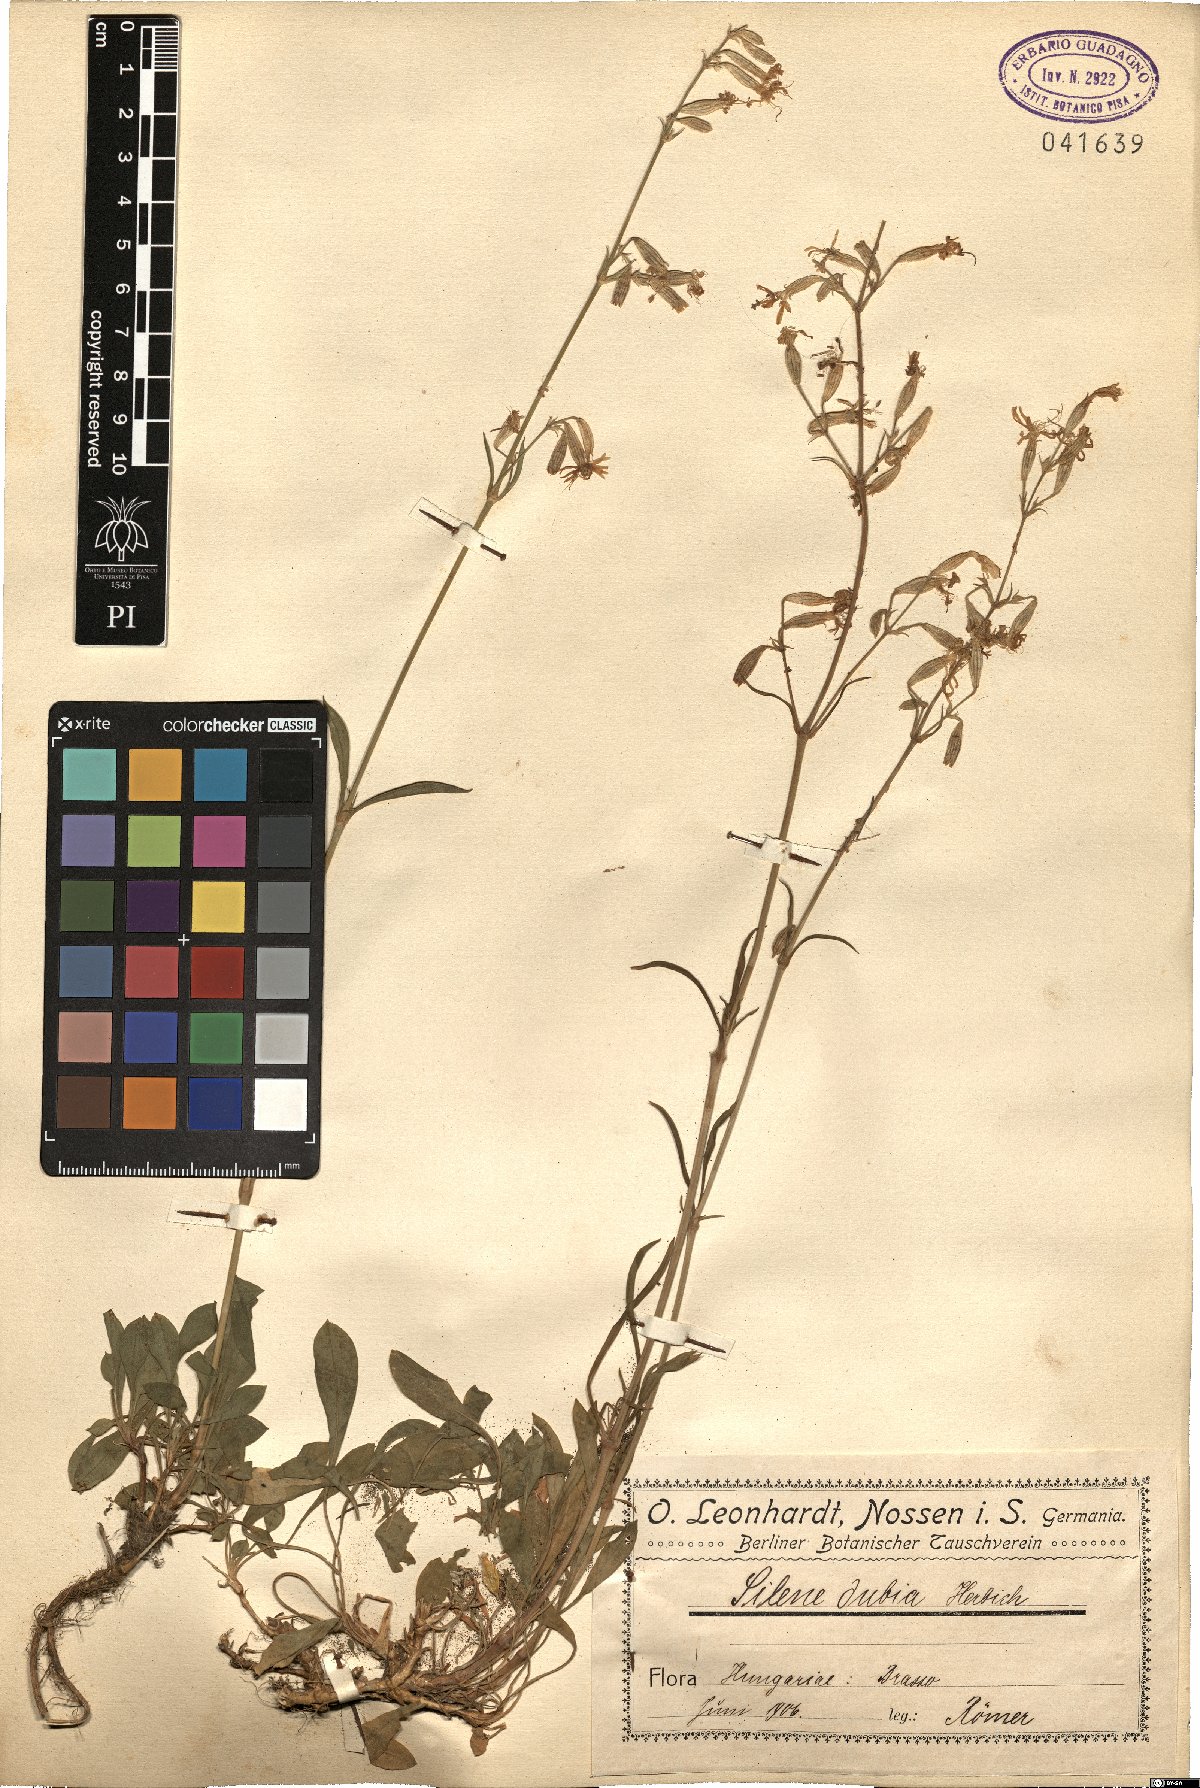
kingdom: Plantae
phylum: Tracheophyta
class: Magnoliopsida
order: Caryophyllales
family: Caryophyllaceae
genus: Silene
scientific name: Silene nutans
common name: Nottingham catchfly
